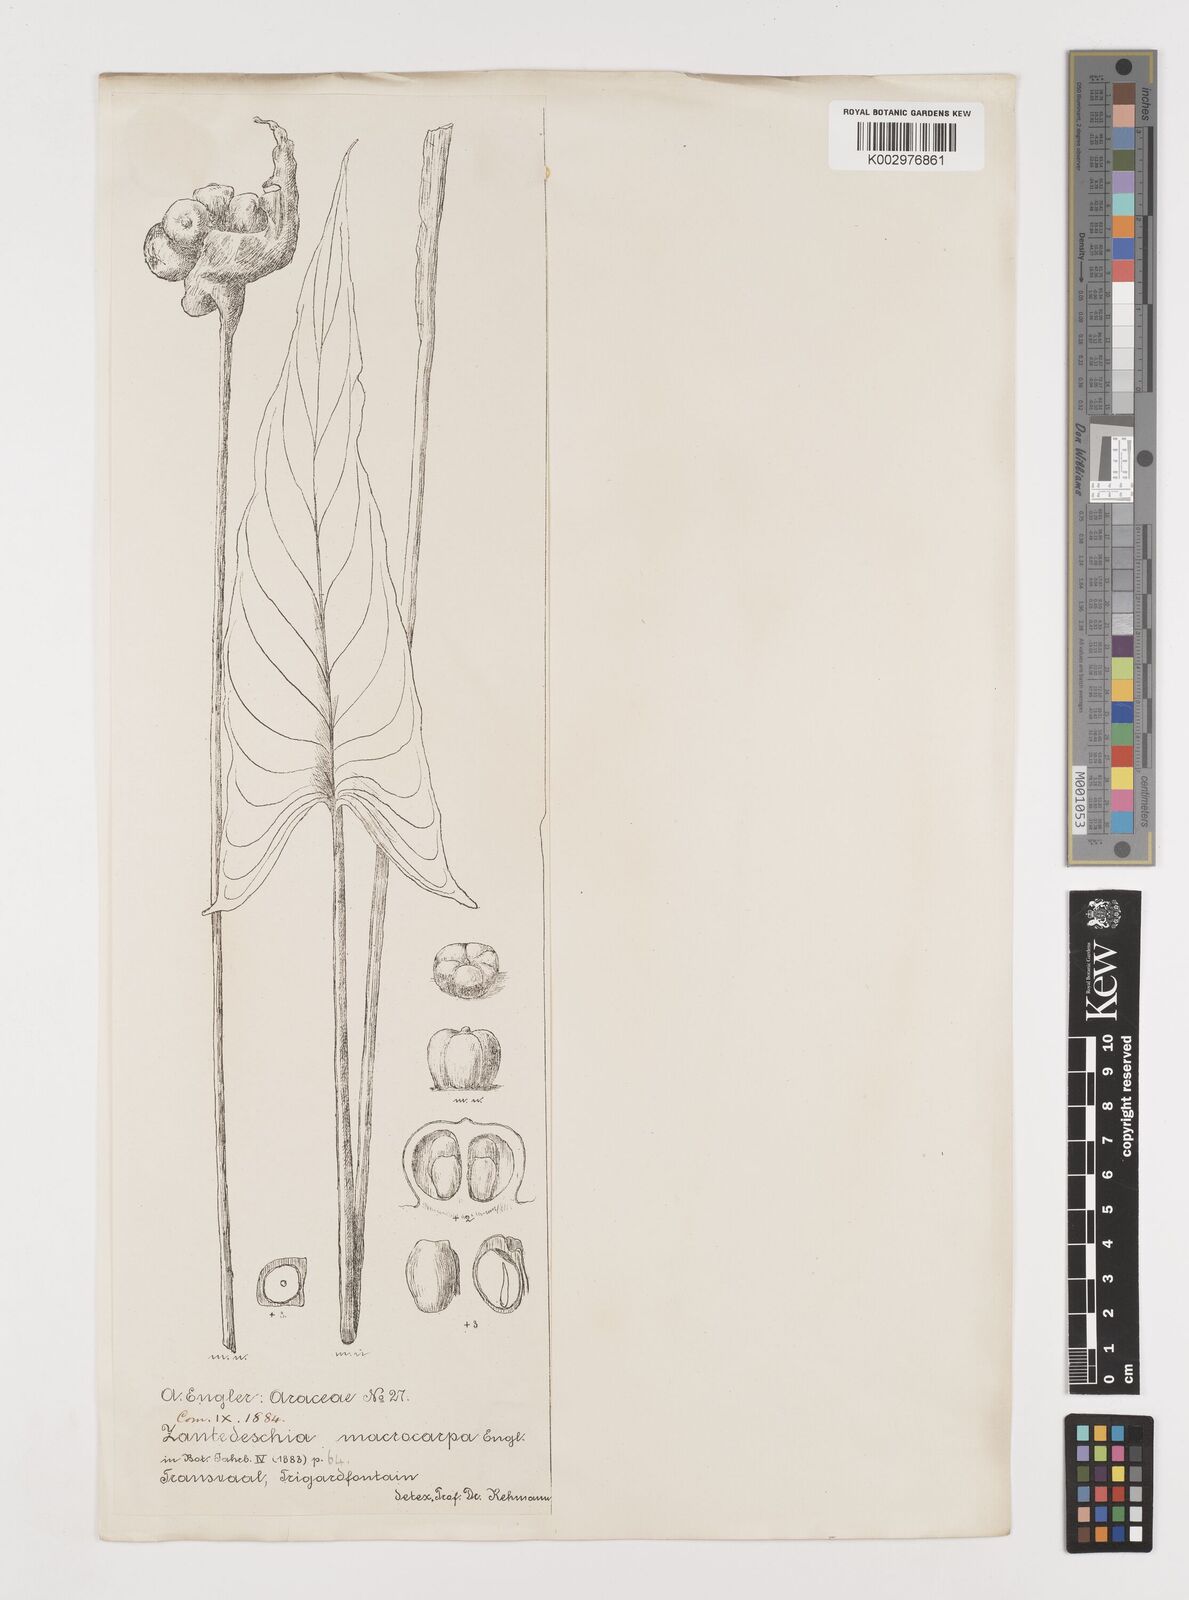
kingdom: Plantae
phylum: Tracheophyta
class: Liliopsida
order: Alismatales
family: Araceae
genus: Zantedeschia
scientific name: Zantedeschia albomaculata
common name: Spotted calla lily
